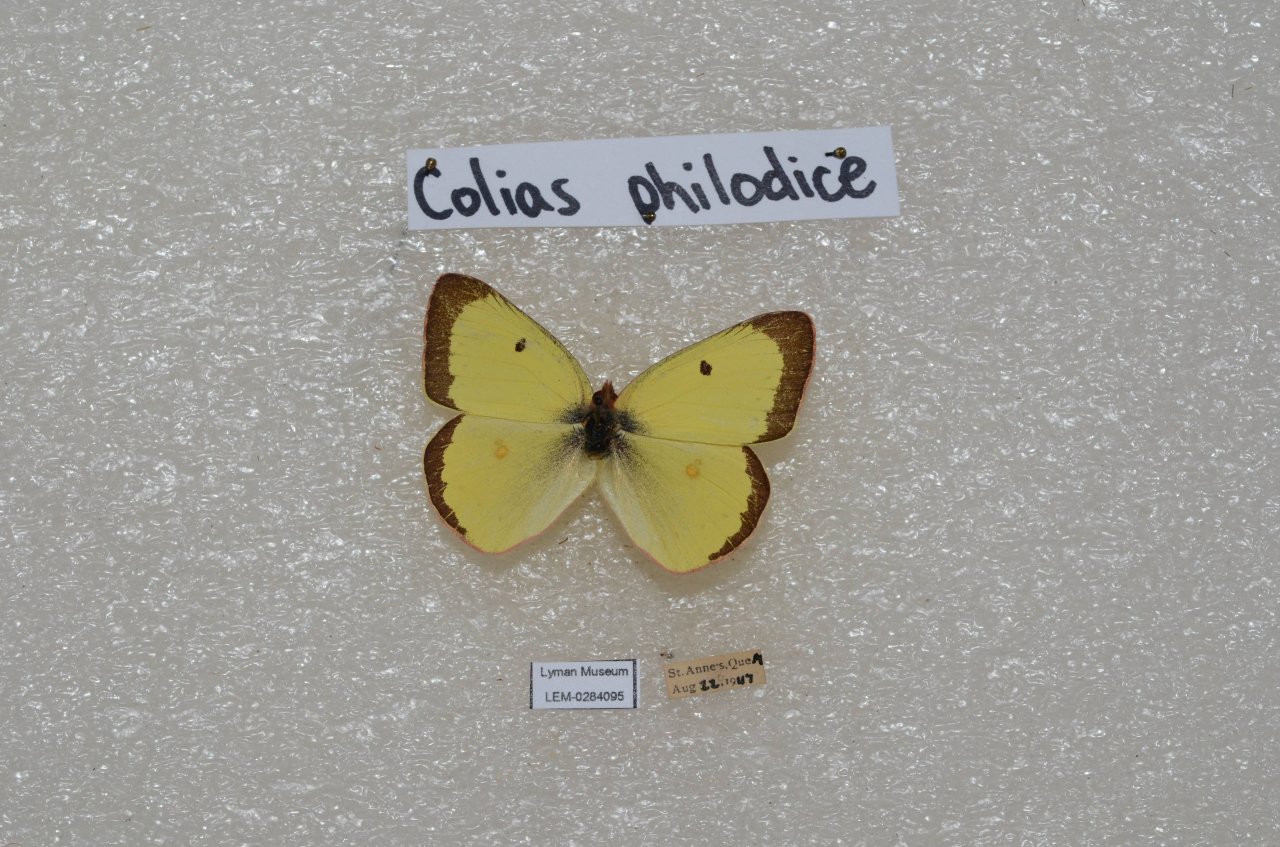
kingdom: Animalia
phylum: Arthropoda
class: Insecta
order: Lepidoptera
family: Pieridae
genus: Colias
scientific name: Colias philodice
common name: Clouded Sulphur
